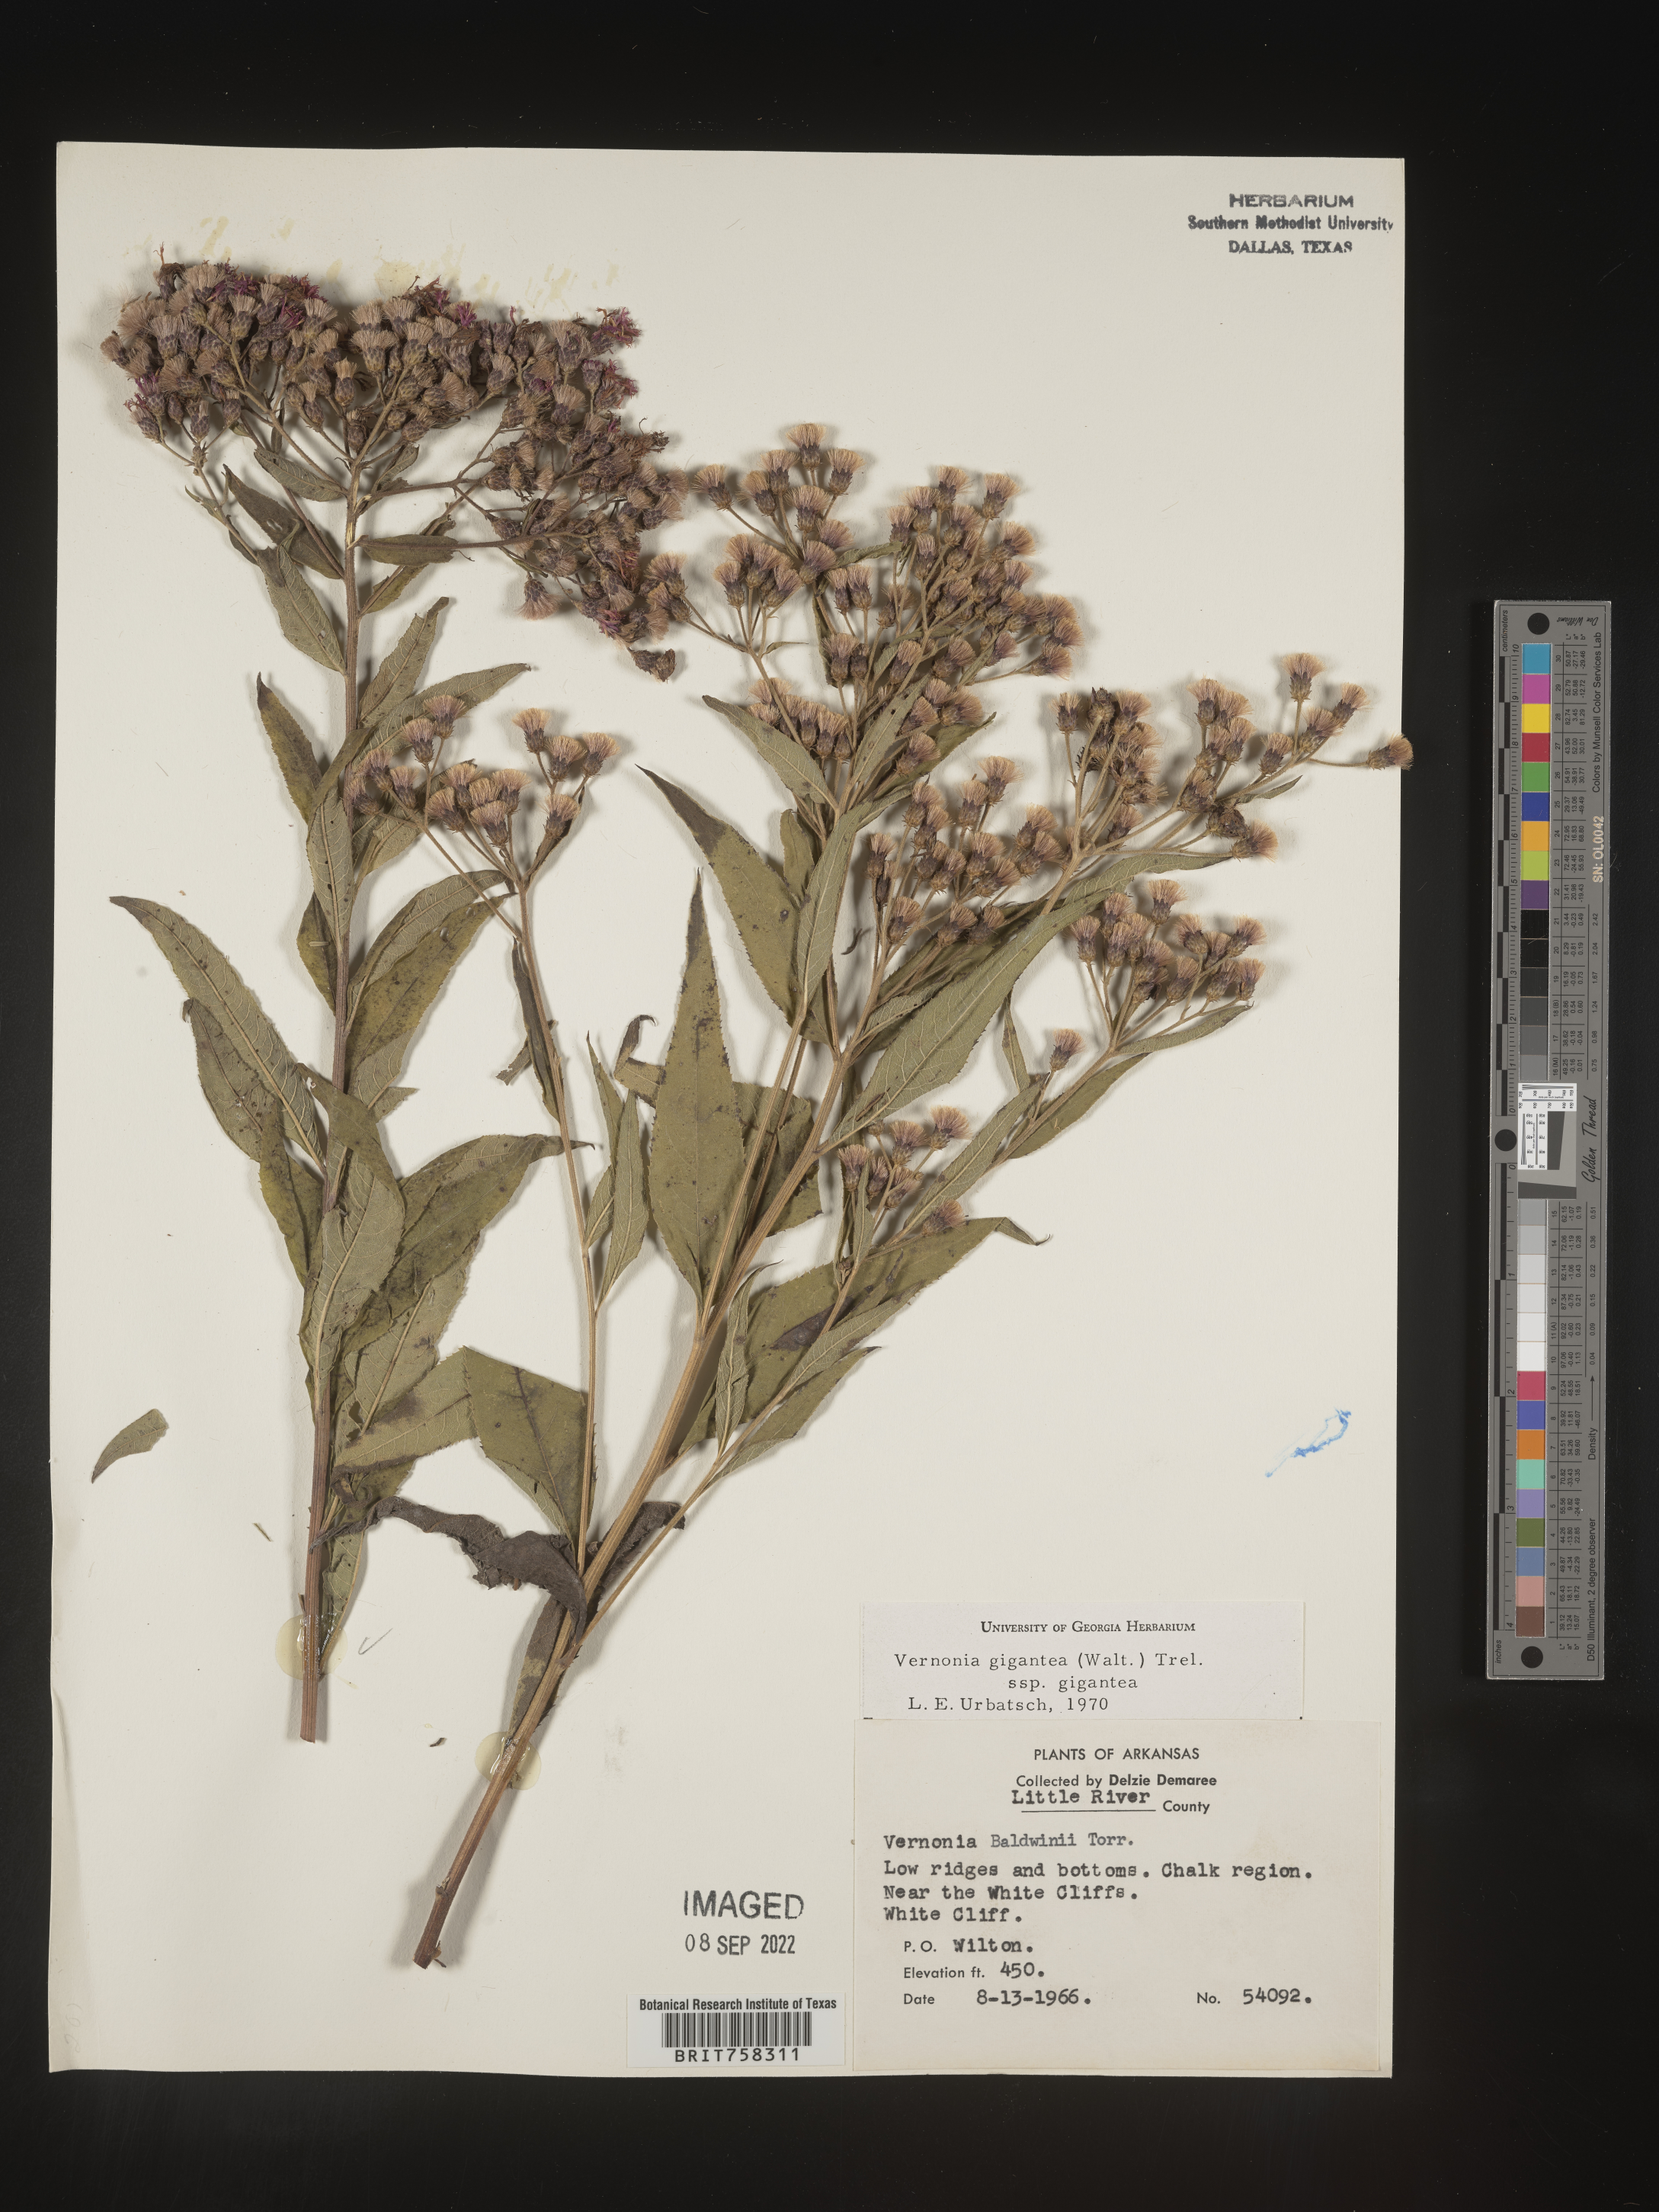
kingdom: Plantae
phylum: Tracheophyta
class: Magnoliopsida
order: Asterales
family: Asteraceae
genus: Vernonia
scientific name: Vernonia gigantea
